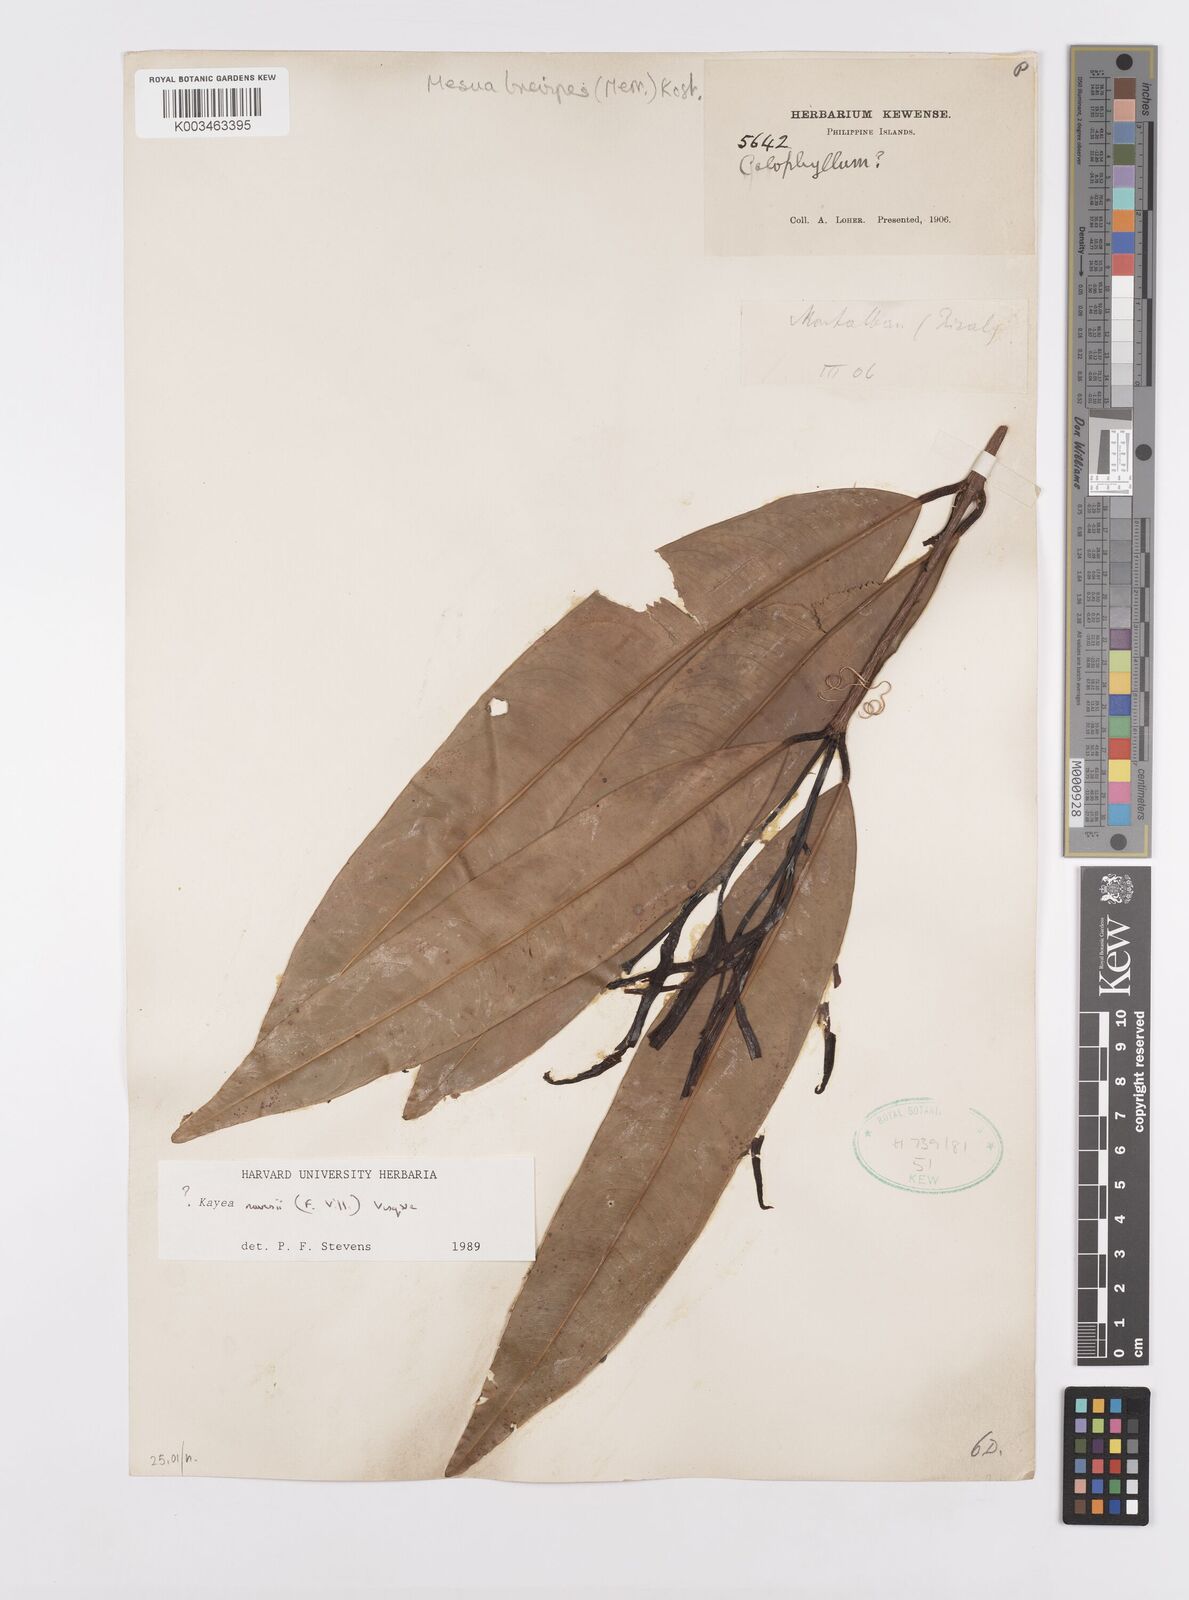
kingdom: Plantae
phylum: Tracheophyta
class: Magnoliopsida
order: Malpighiales
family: Calophyllaceae
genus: Kayea
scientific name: Kayea navesii
